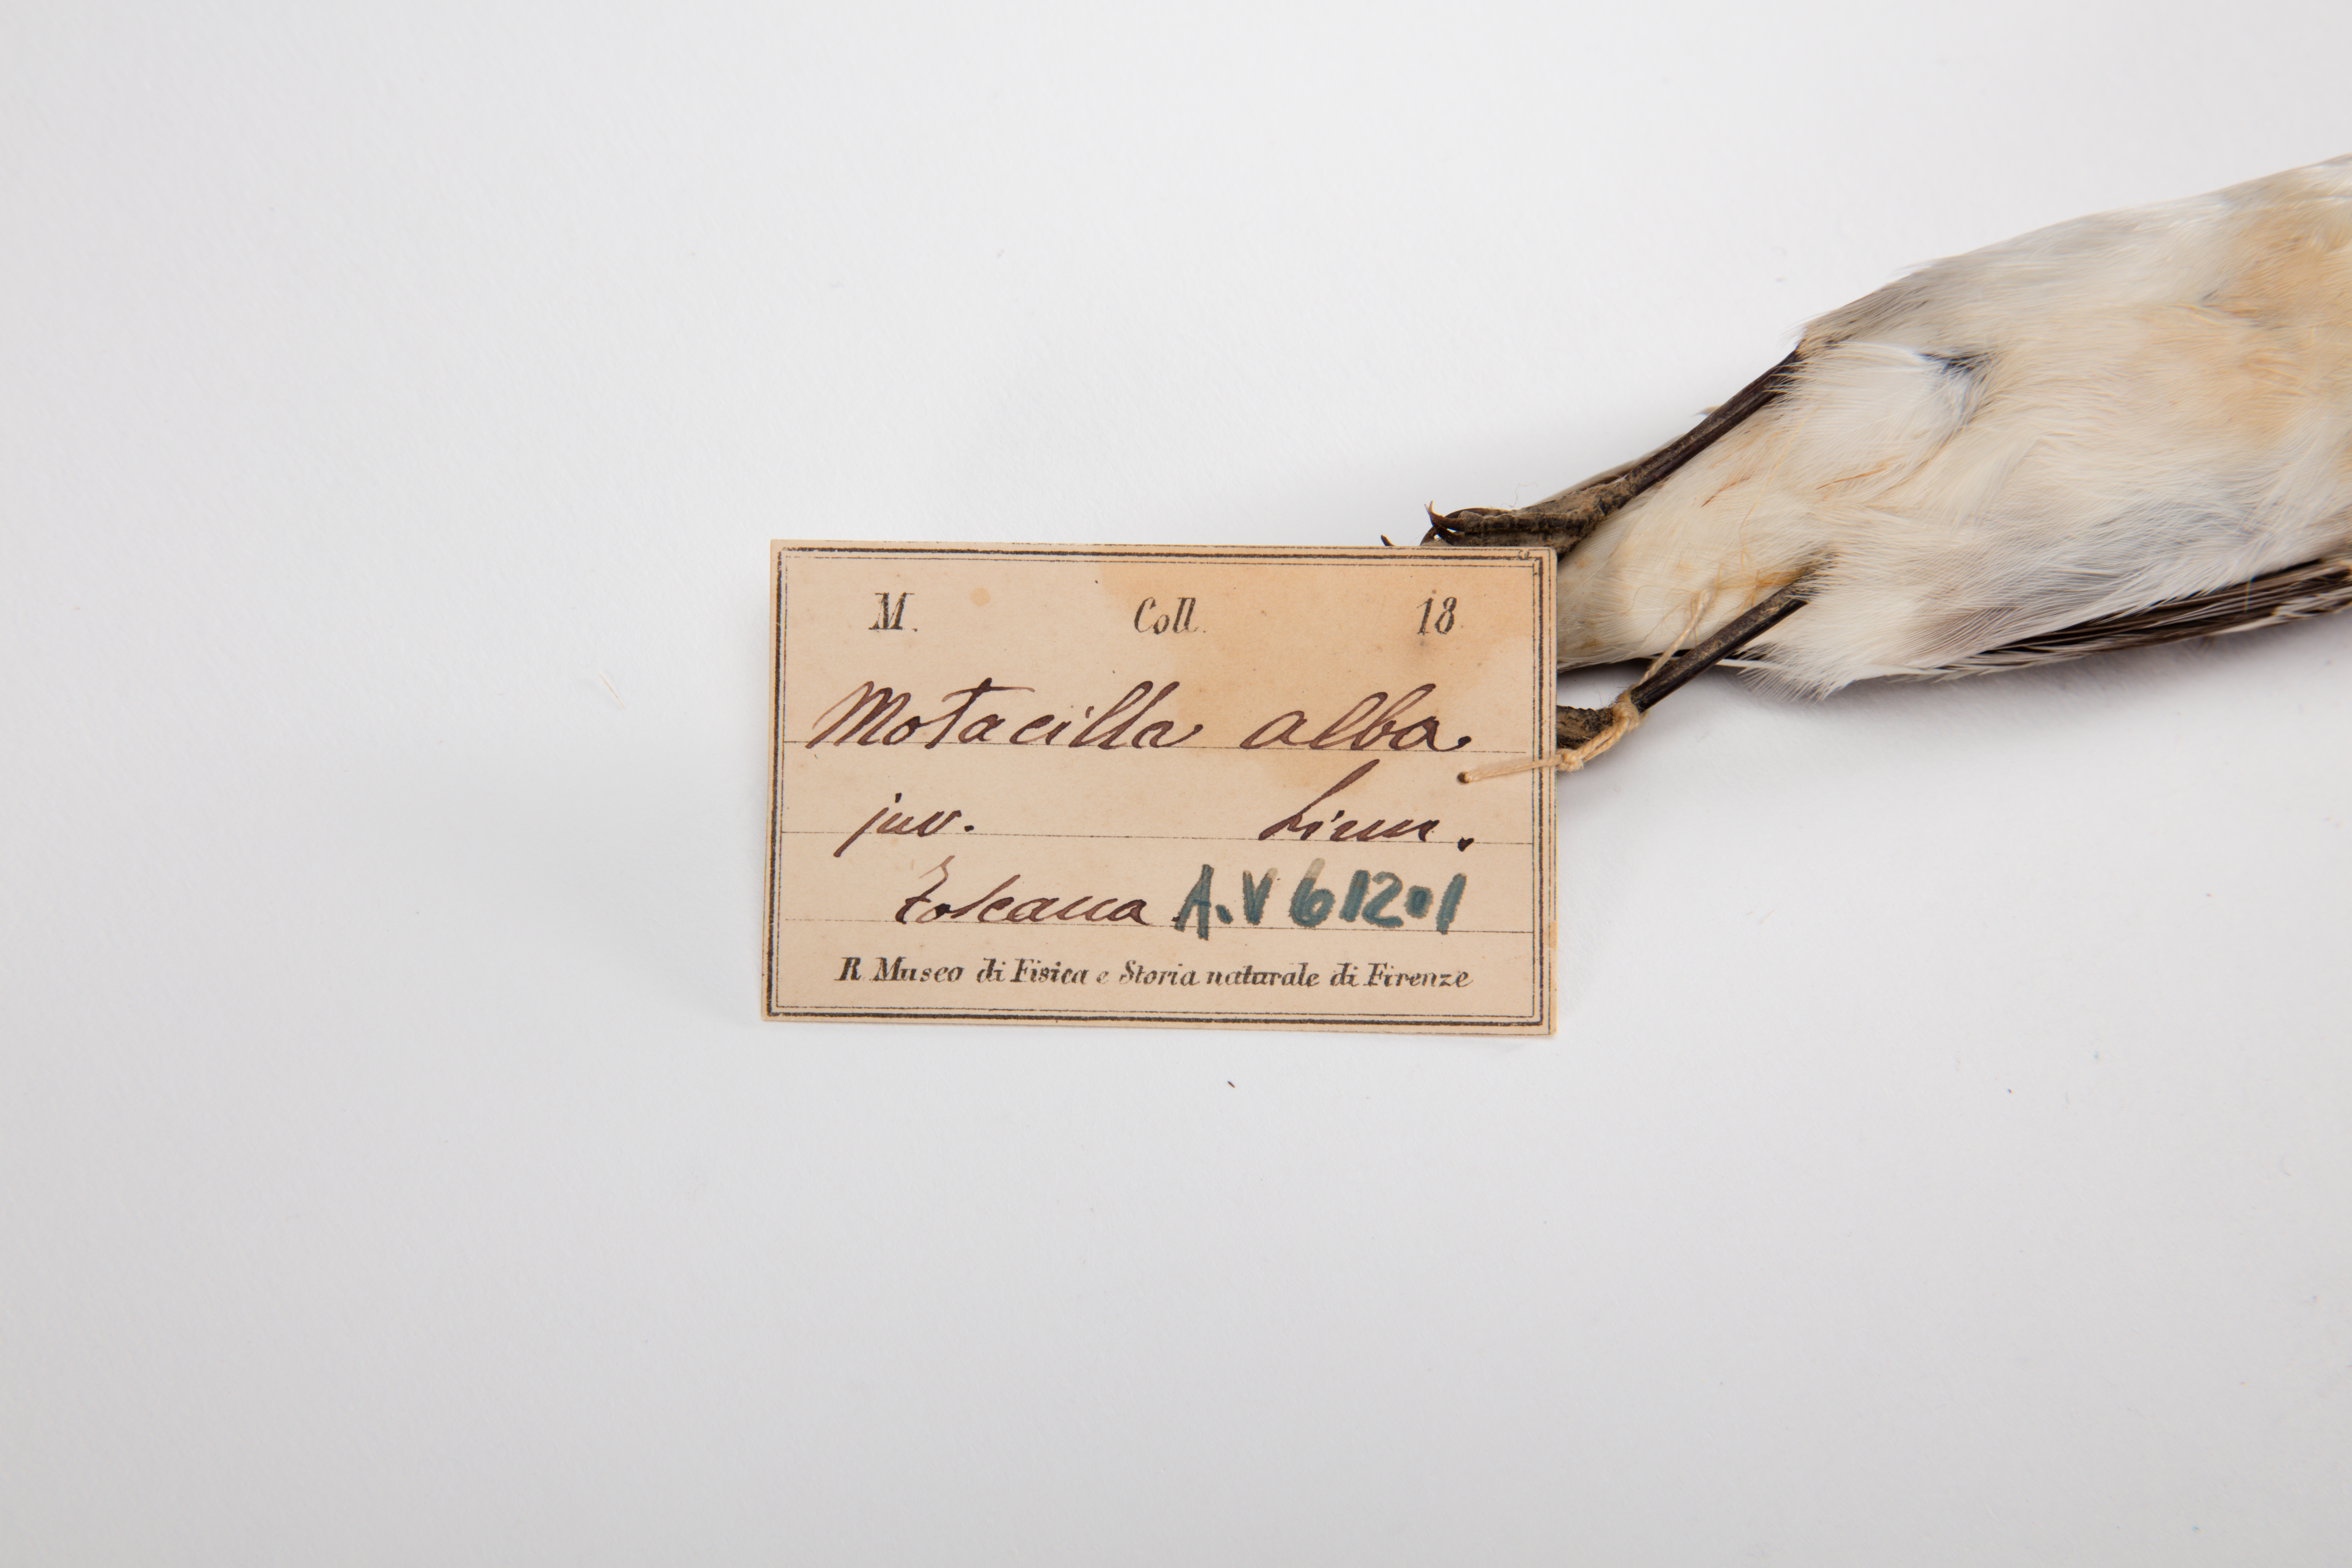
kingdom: Animalia
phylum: Chordata
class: Aves
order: Passeriformes
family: Motacillidae
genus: Motacilla
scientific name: Motacilla alba
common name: White wagtail
